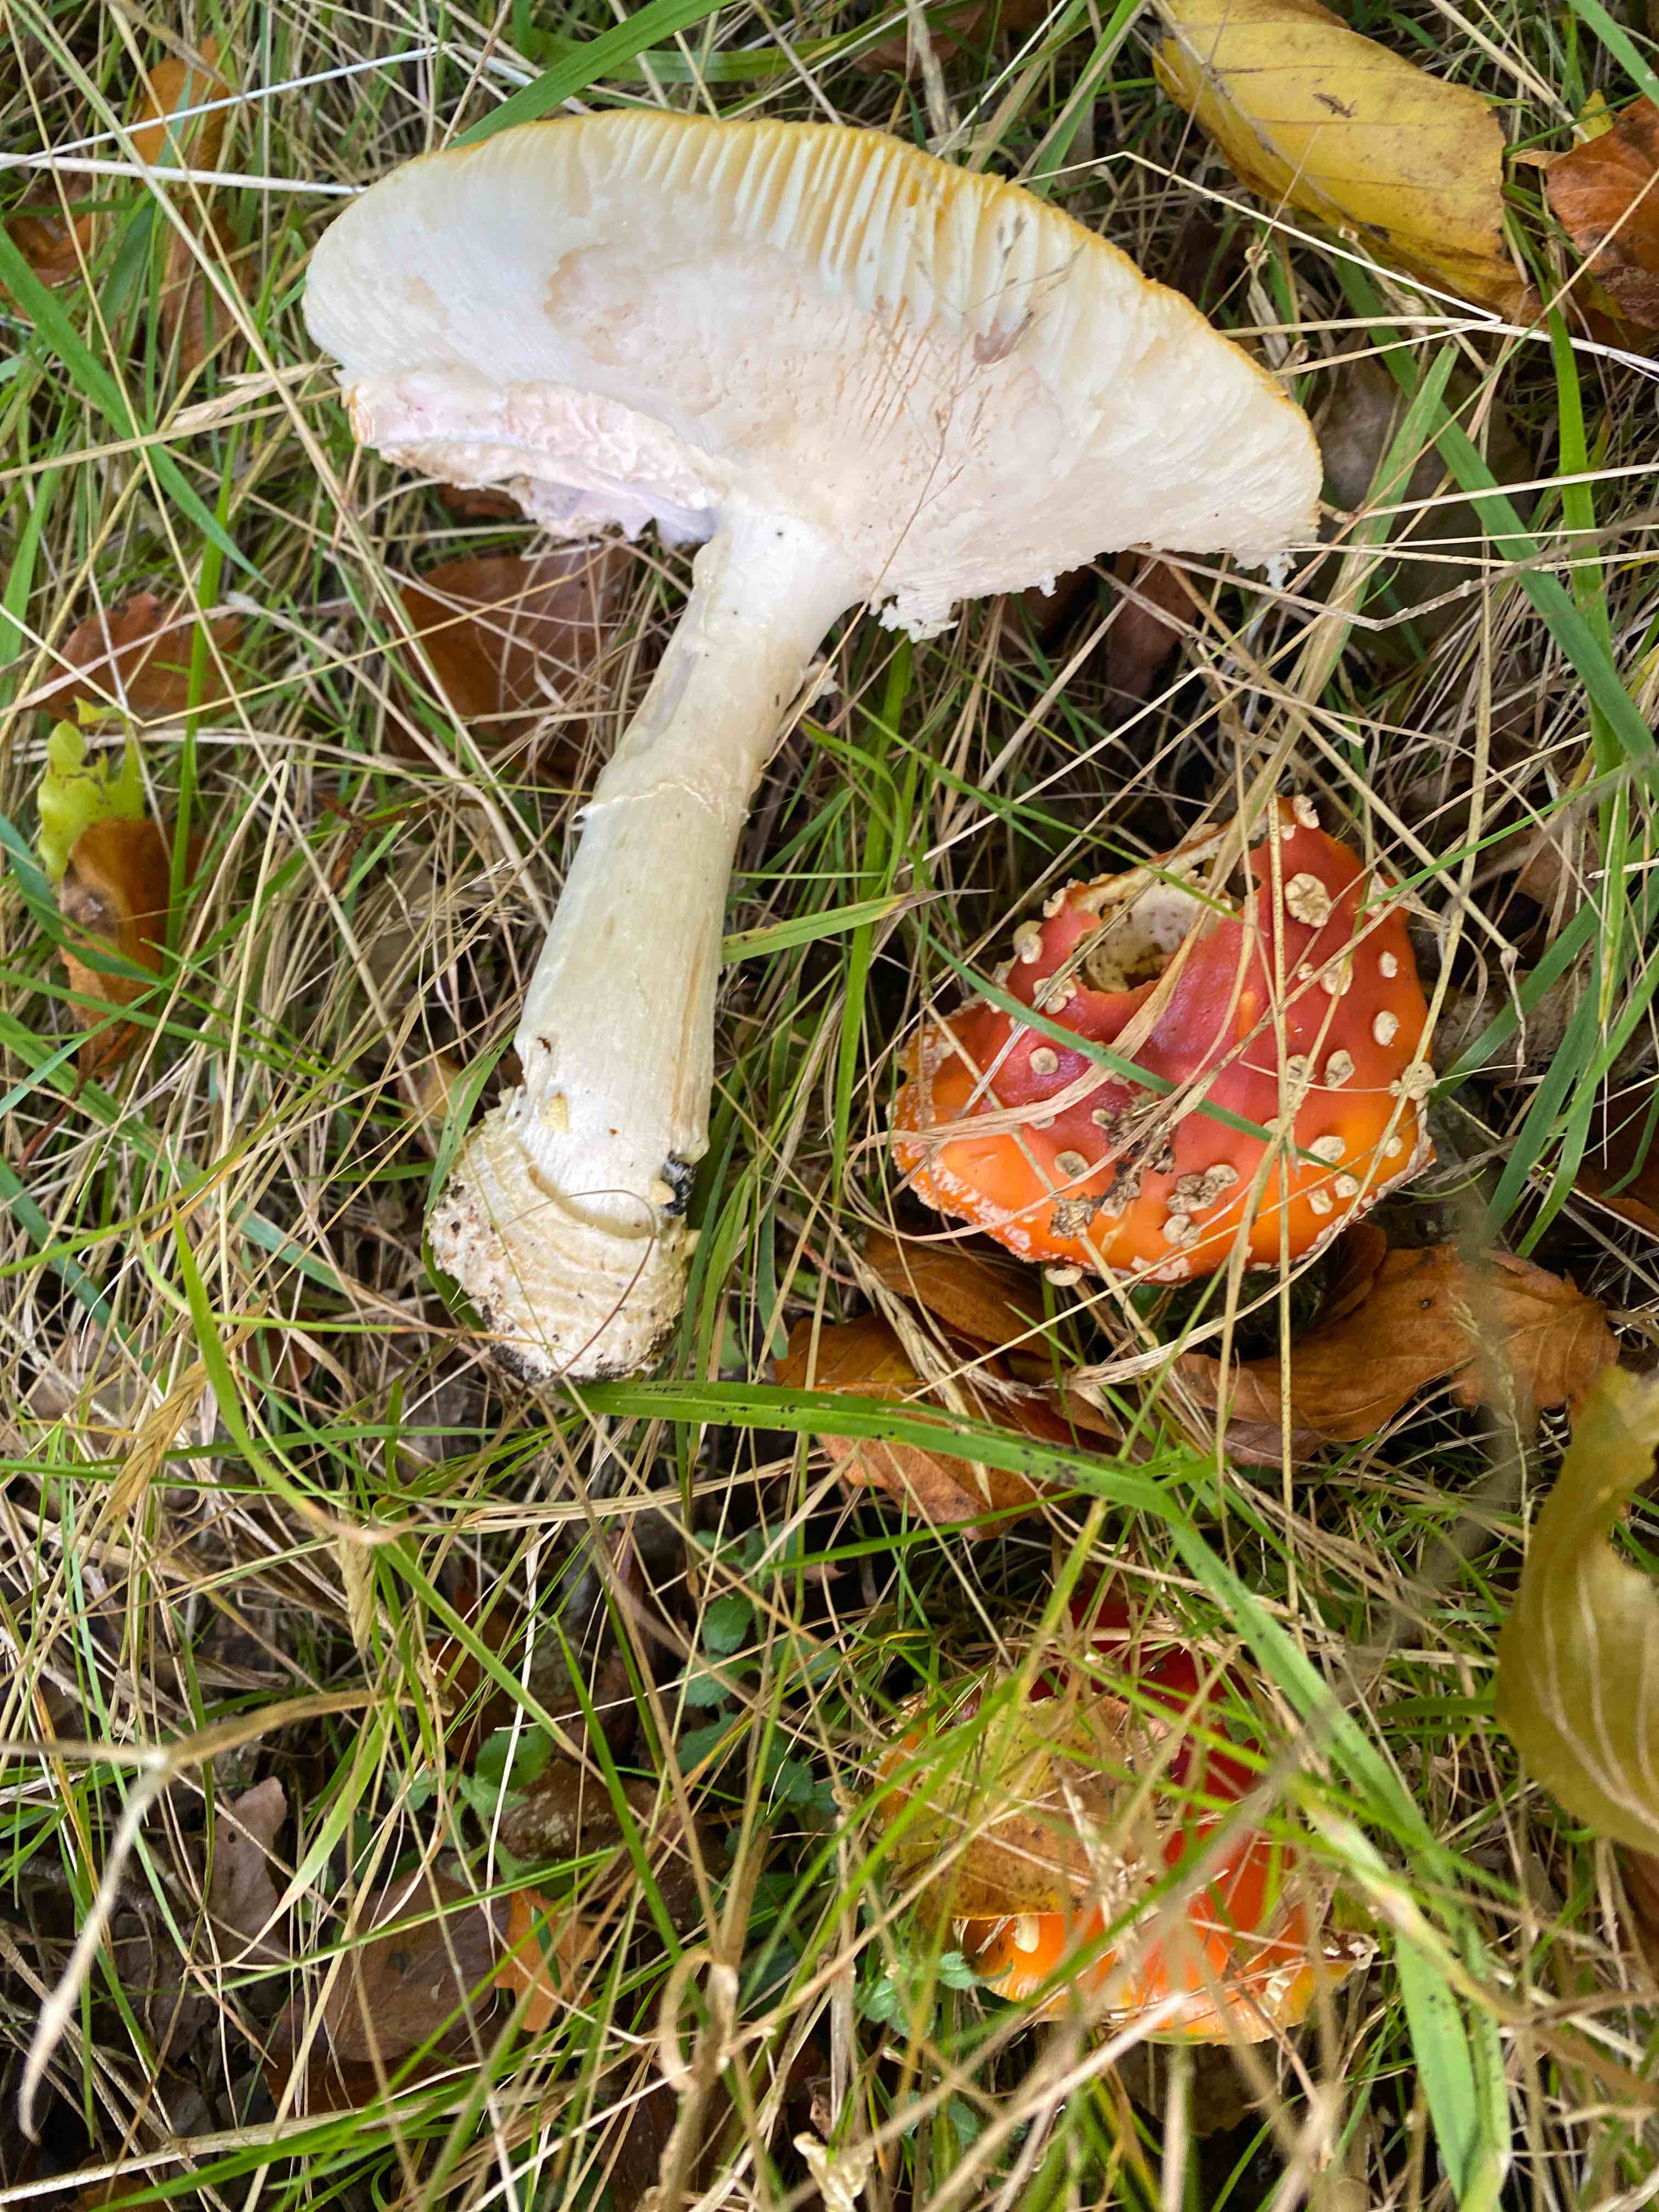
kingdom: Fungi
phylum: Basidiomycota
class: Agaricomycetes
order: Agaricales
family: Amanitaceae
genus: Amanita
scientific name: Amanita muscaria
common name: rød fluesvamp
